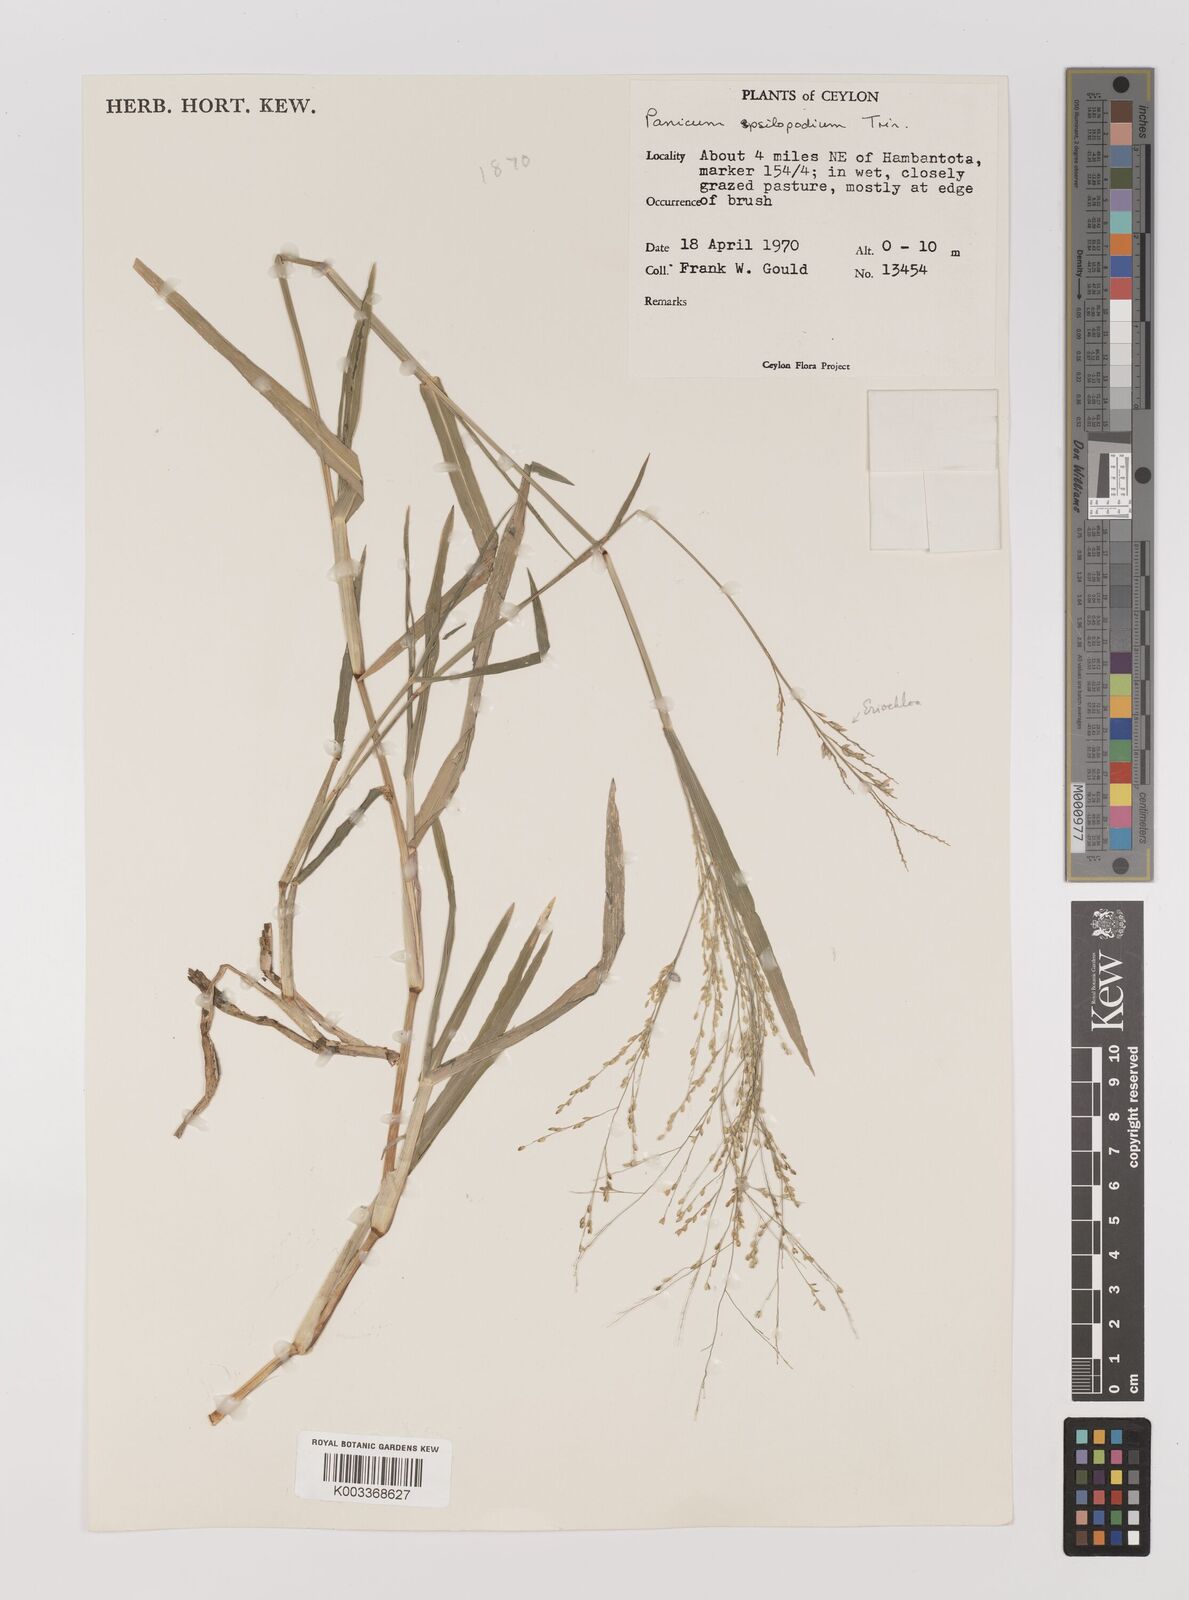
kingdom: Plantae
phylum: Tracheophyta
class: Liliopsida
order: Poales
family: Poaceae
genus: Panicum
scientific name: Panicum sumatrense
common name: Little millet
